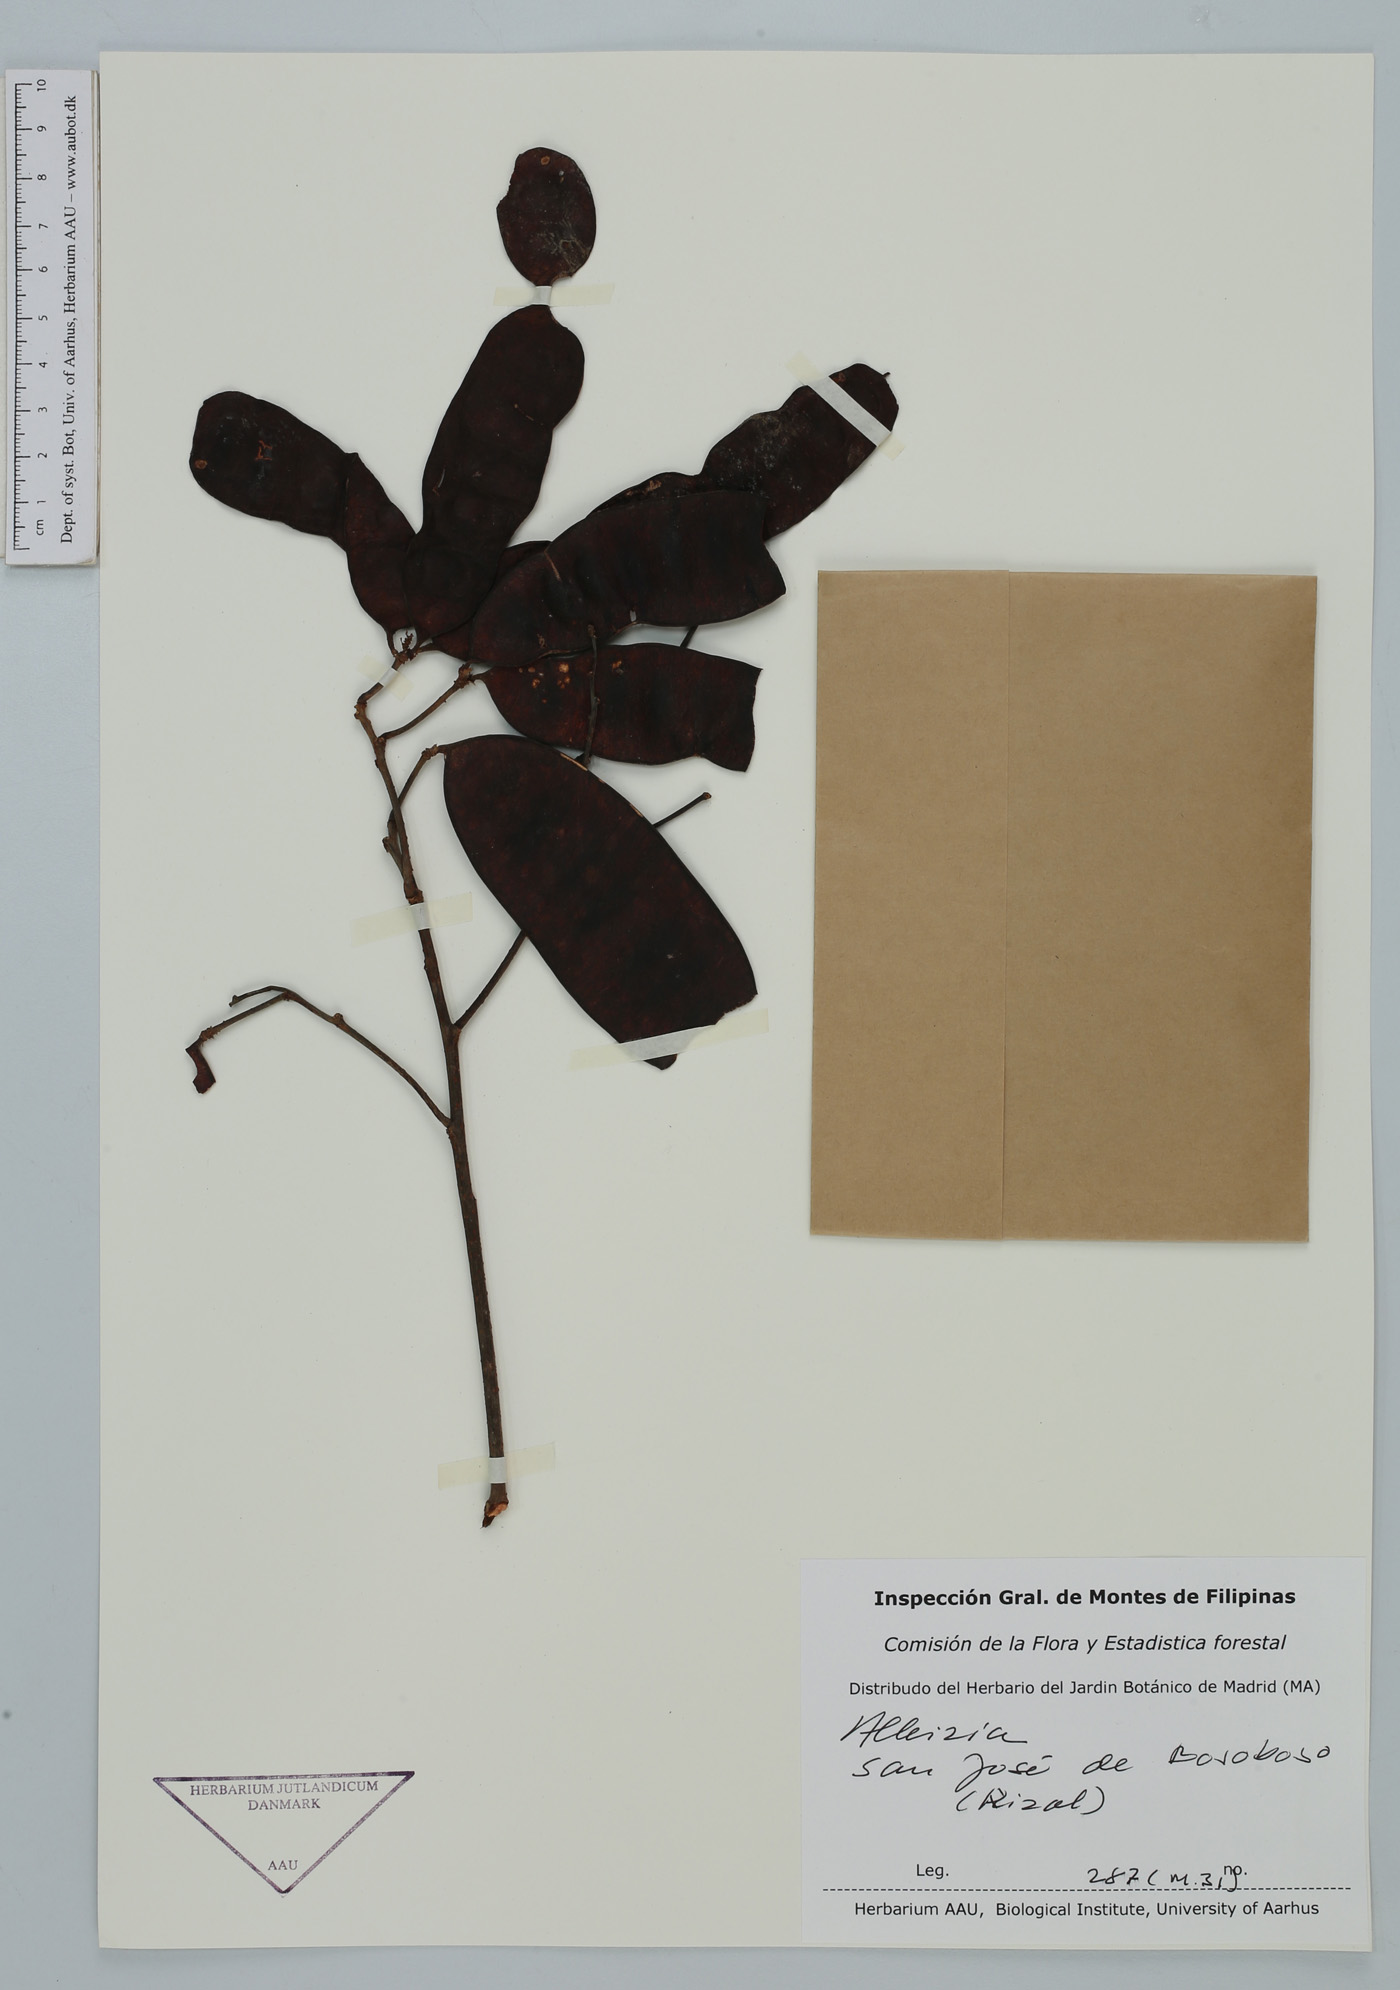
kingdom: Plantae
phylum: Tracheophyta
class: Magnoliopsida
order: Fabales
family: Fabaceae
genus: Albizia
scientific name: Albizia
